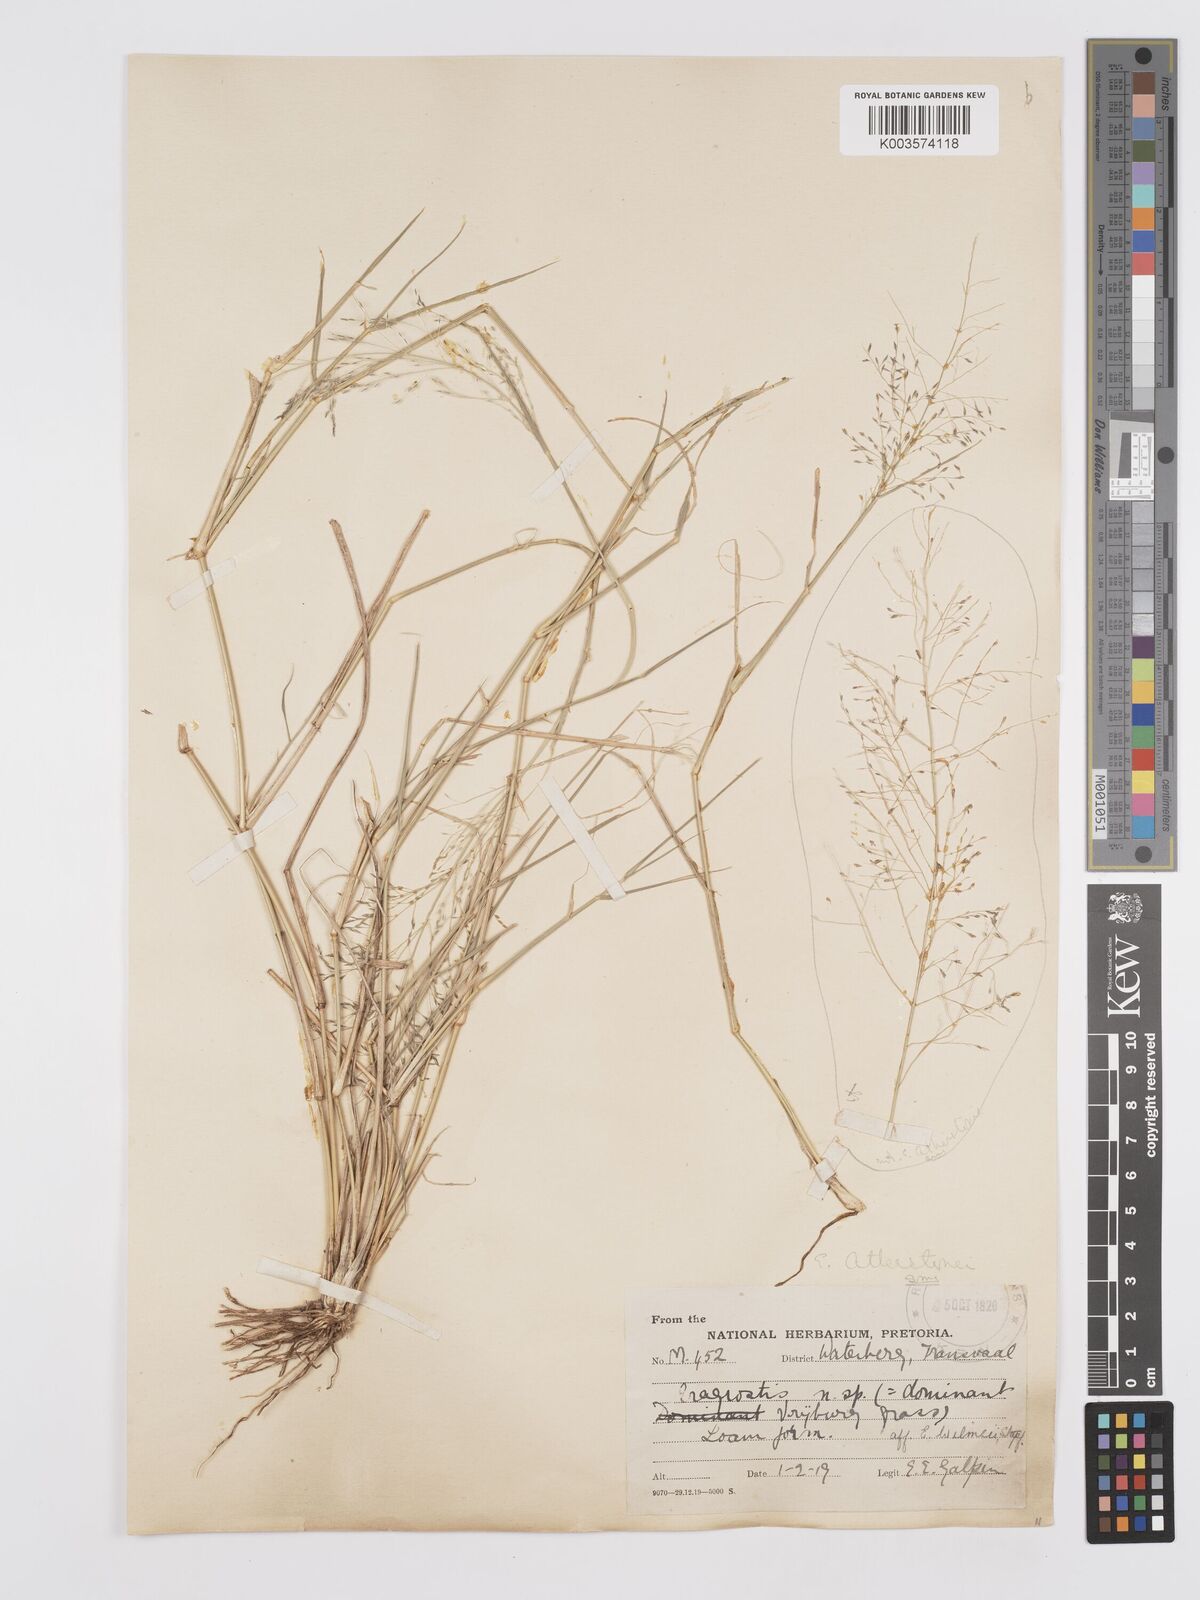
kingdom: Plantae
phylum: Tracheophyta
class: Liliopsida
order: Poales
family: Poaceae
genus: Eragrostis
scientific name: Eragrostis cylindriflora
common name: Cylinderflower lovegrass
